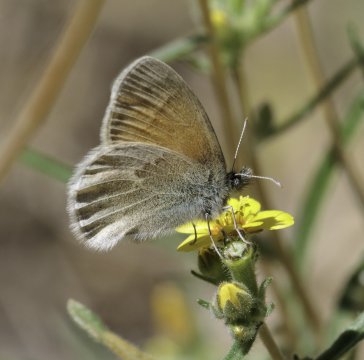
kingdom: Animalia
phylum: Arthropoda
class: Insecta
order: Lepidoptera
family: Nymphalidae
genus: Coenonympha
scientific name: Coenonympha tullia
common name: Large Heath
